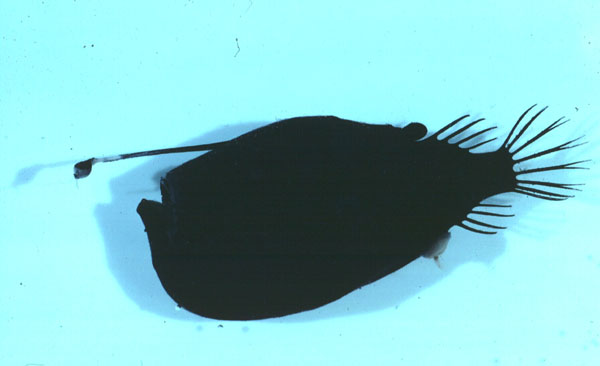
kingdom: Animalia
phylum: Chordata
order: Lophiiformes
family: Ceratiidae
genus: Cryptopsaras
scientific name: Cryptopsaras couesii
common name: Triplewart seadevil
